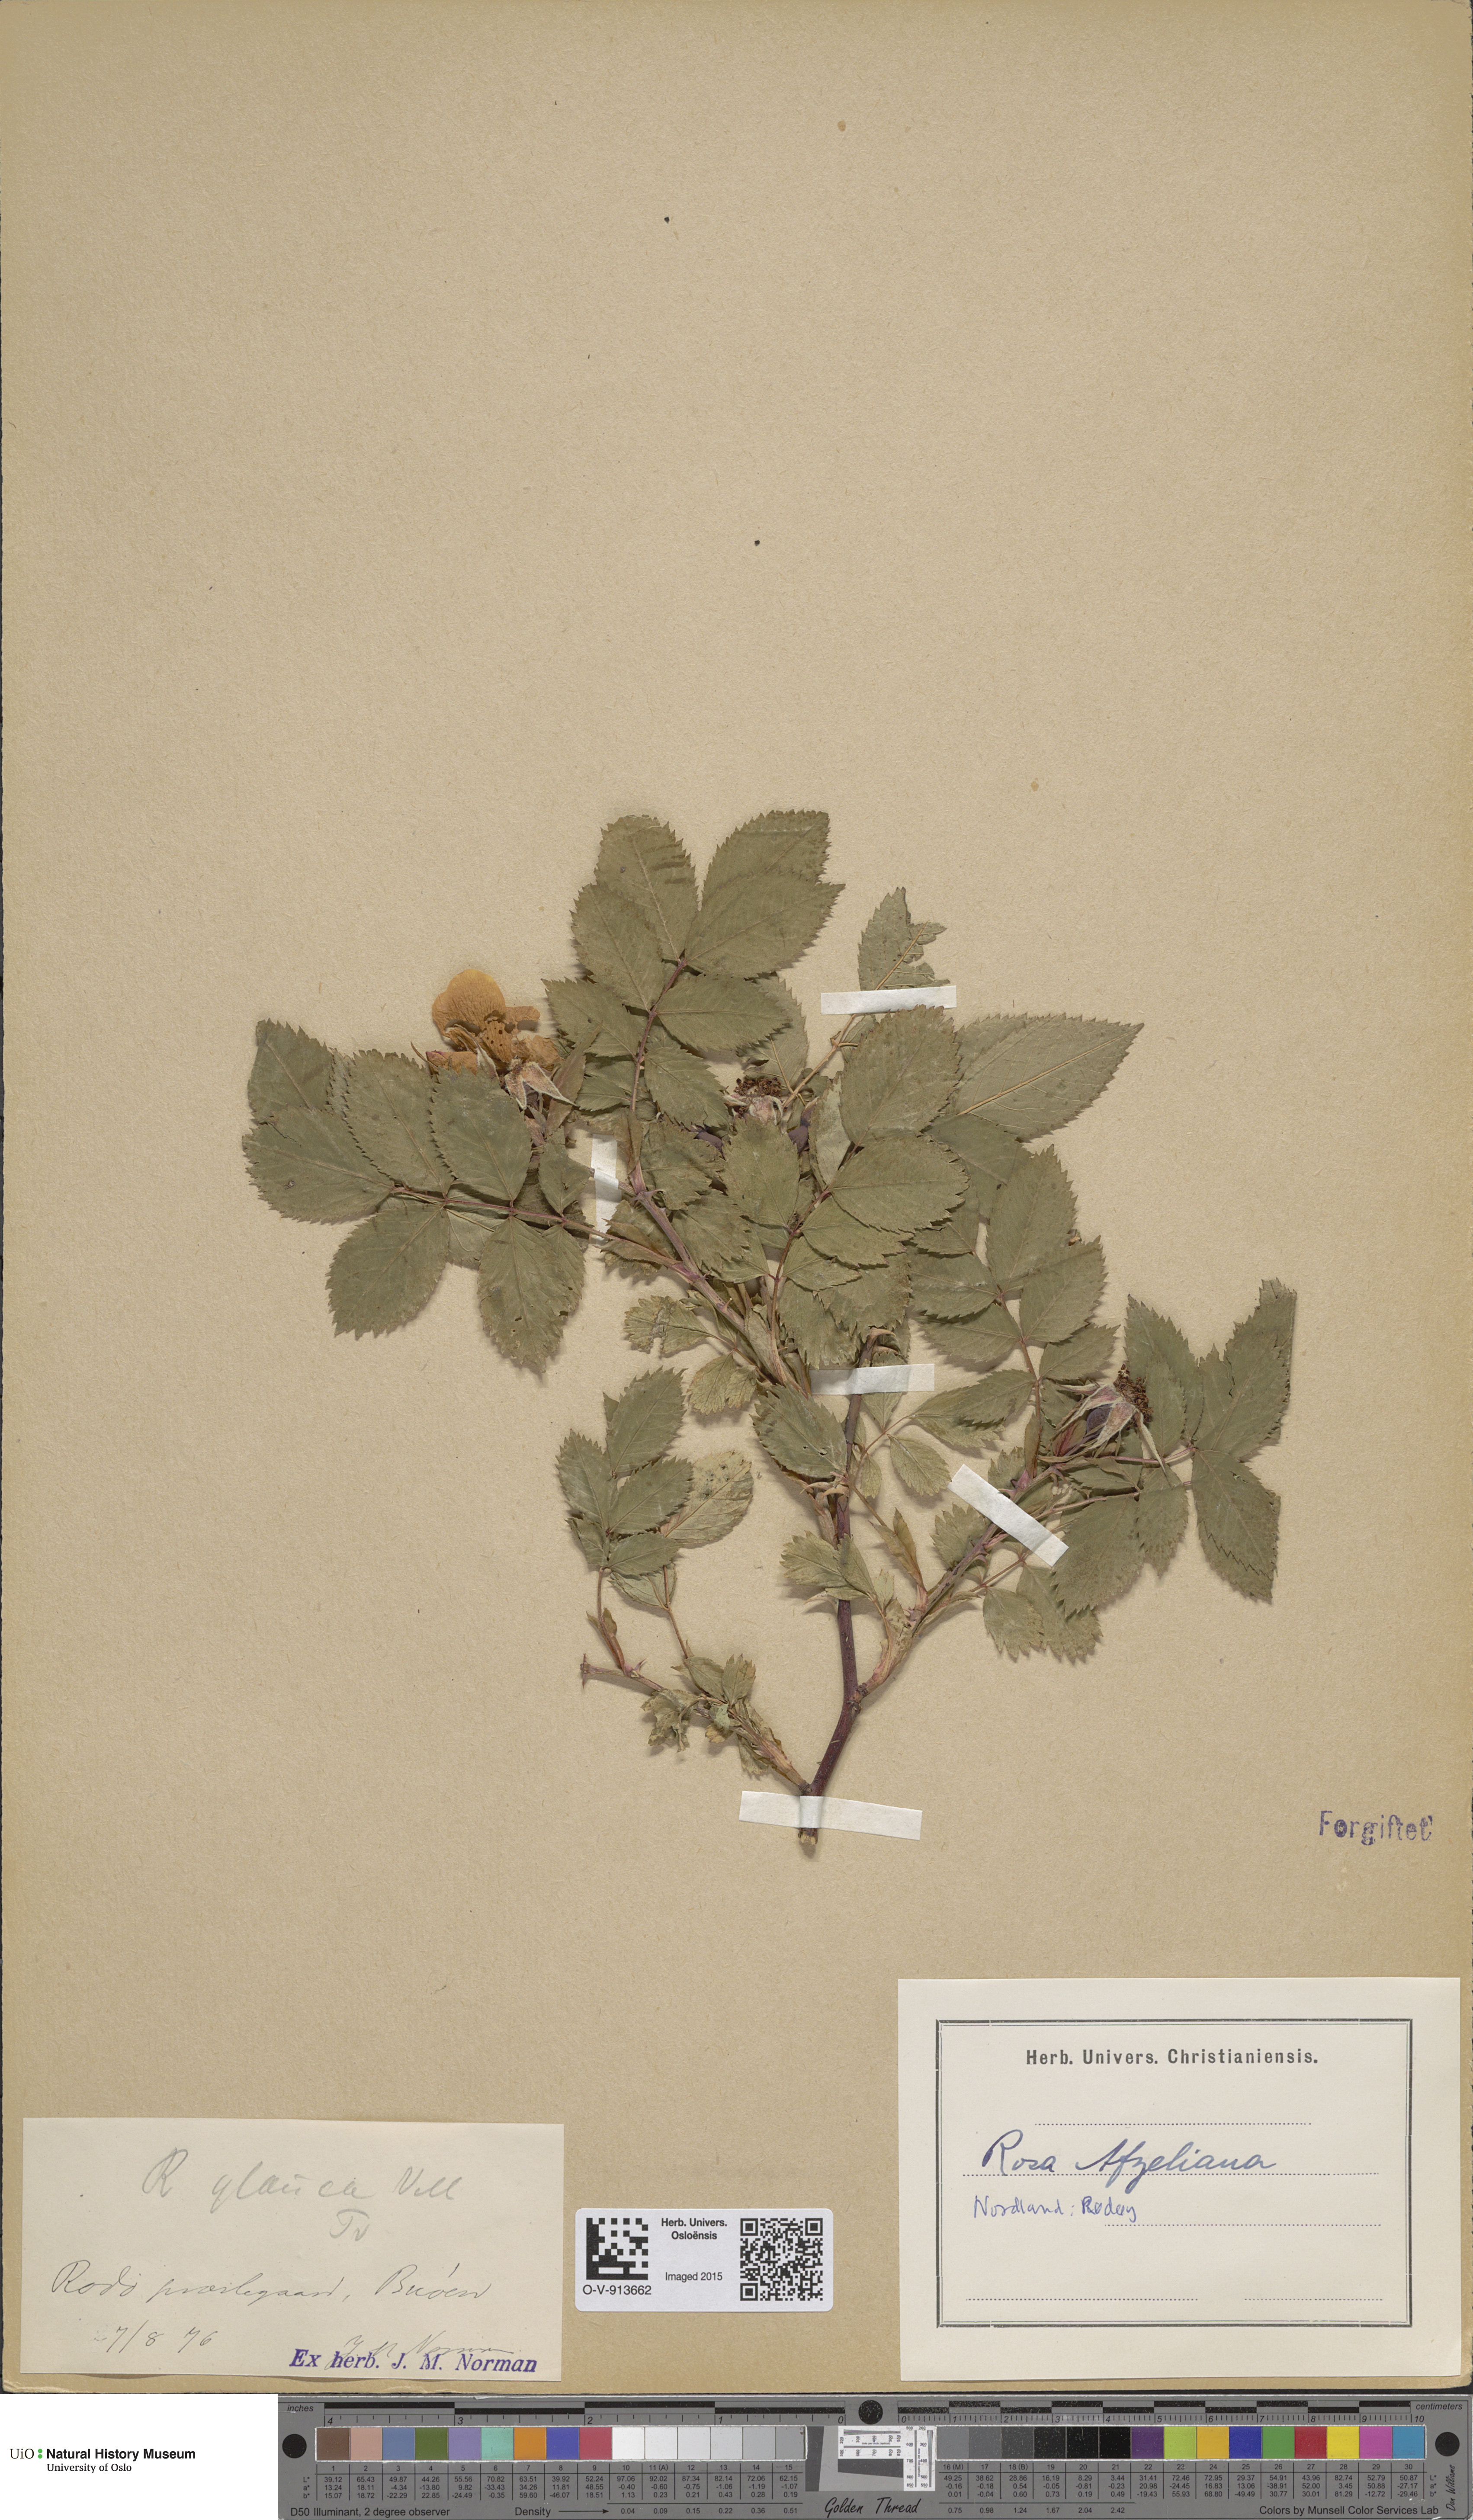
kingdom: Plantae
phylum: Tracheophyta
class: Magnoliopsida
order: Rosales
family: Rosaceae
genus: Rosa
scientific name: Rosa
